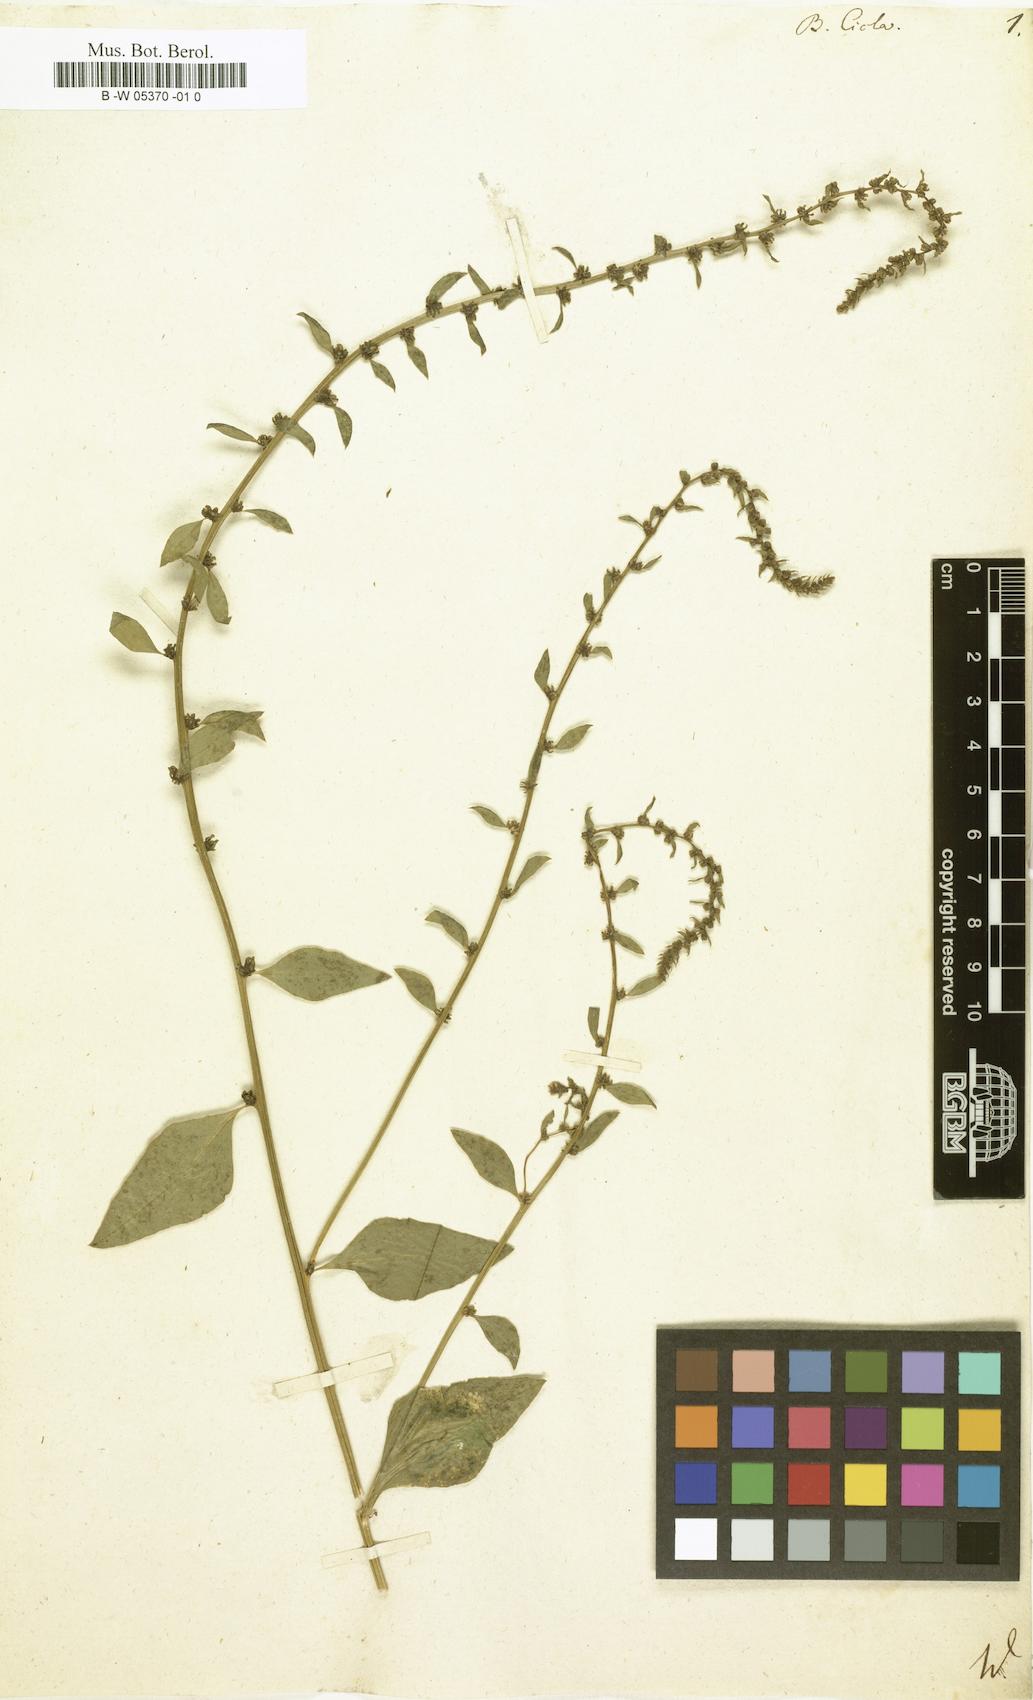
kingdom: Plantae
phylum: Tracheophyta
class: Magnoliopsida
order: Caryophyllales
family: Amaranthaceae
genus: Beta
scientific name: Beta
